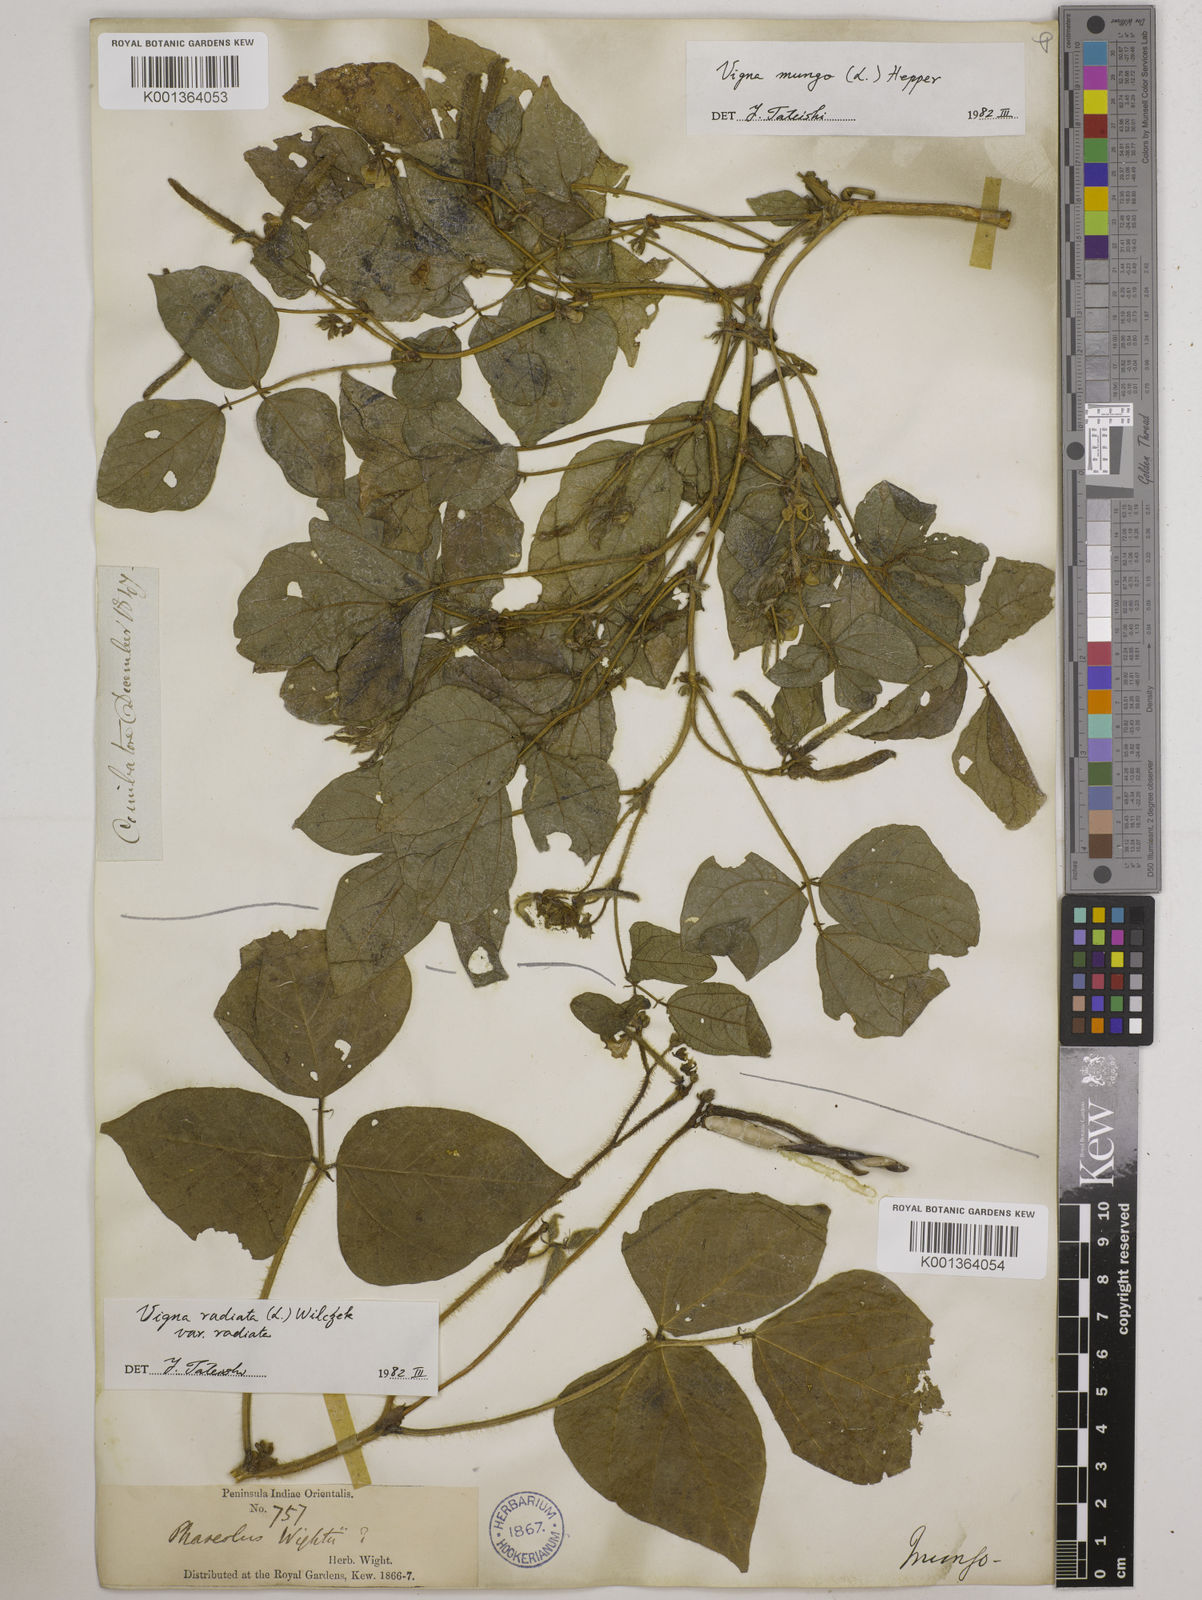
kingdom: Plantae
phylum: Tracheophyta
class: Magnoliopsida
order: Fabales
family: Fabaceae
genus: Vigna
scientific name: Vigna radiata
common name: Mung-bean
